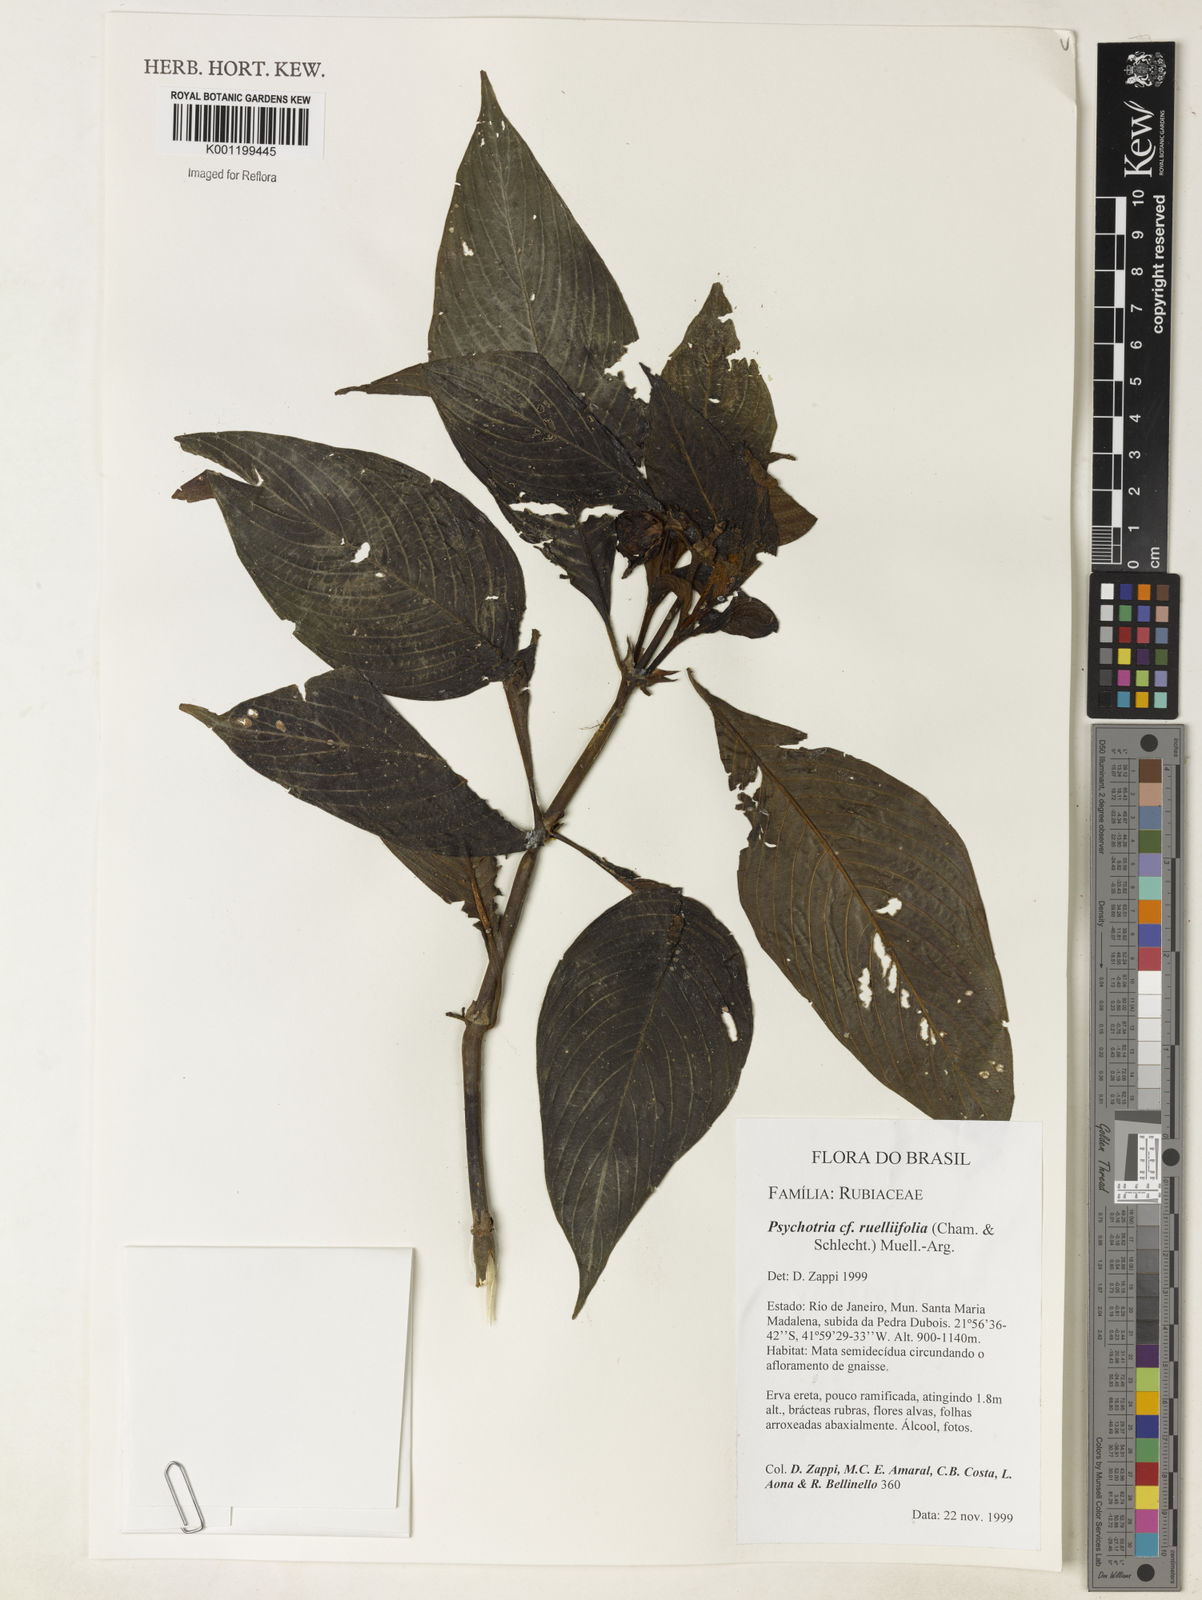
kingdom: Plantae
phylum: Tracheophyta
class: Magnoliopsida
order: Gentianales
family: Rubiaceae
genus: Psychotria
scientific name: Psychotria
